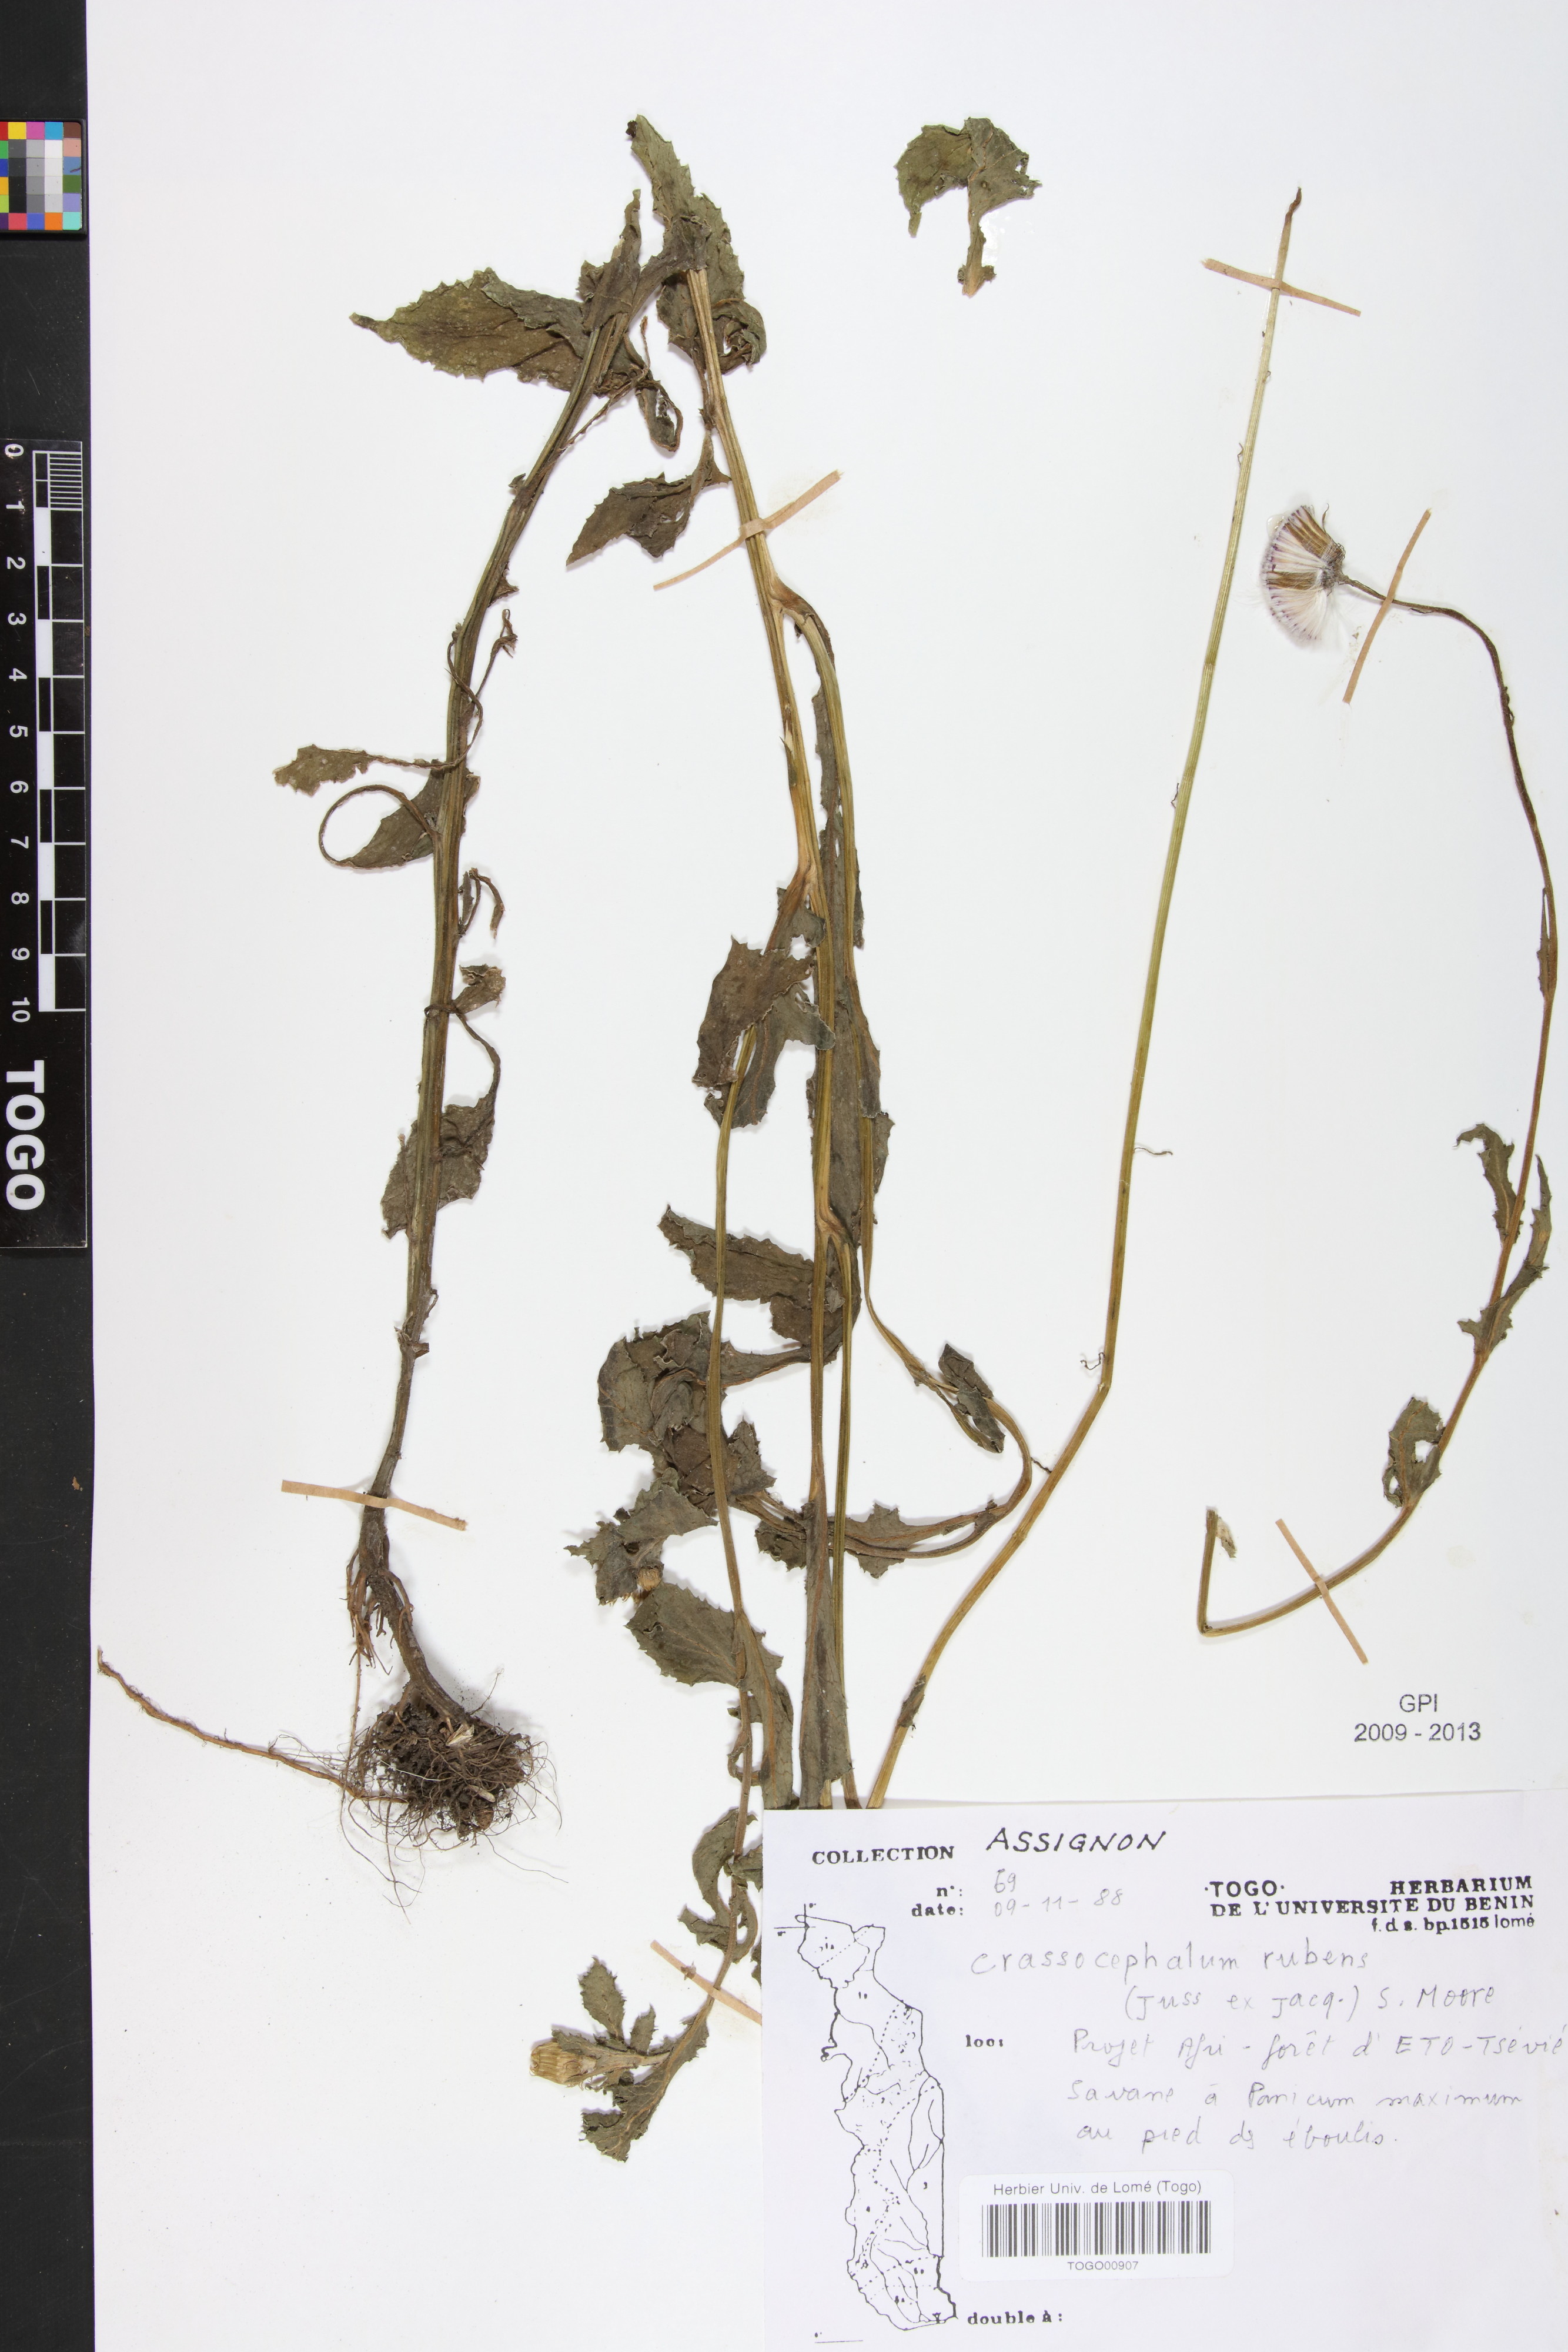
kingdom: Plantae
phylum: Tracheophyta
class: Magnoliopsida
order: Asterales
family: Asteraceae
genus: Crassocephalum
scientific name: Crassocephalum rubens
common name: Yoruban bologi
